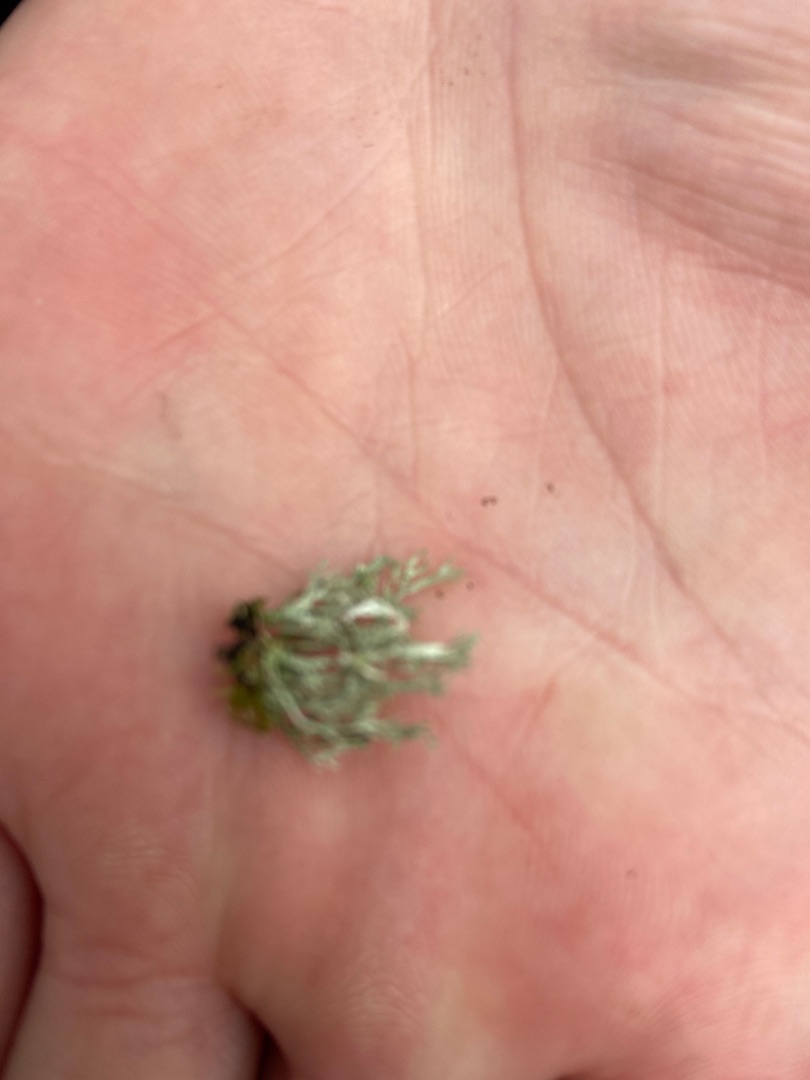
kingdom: Fungi
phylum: Ascomycota
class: Lecanoromycetes
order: Lecanorales
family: Cladoniaceae
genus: Cladonia
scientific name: Cladonia
